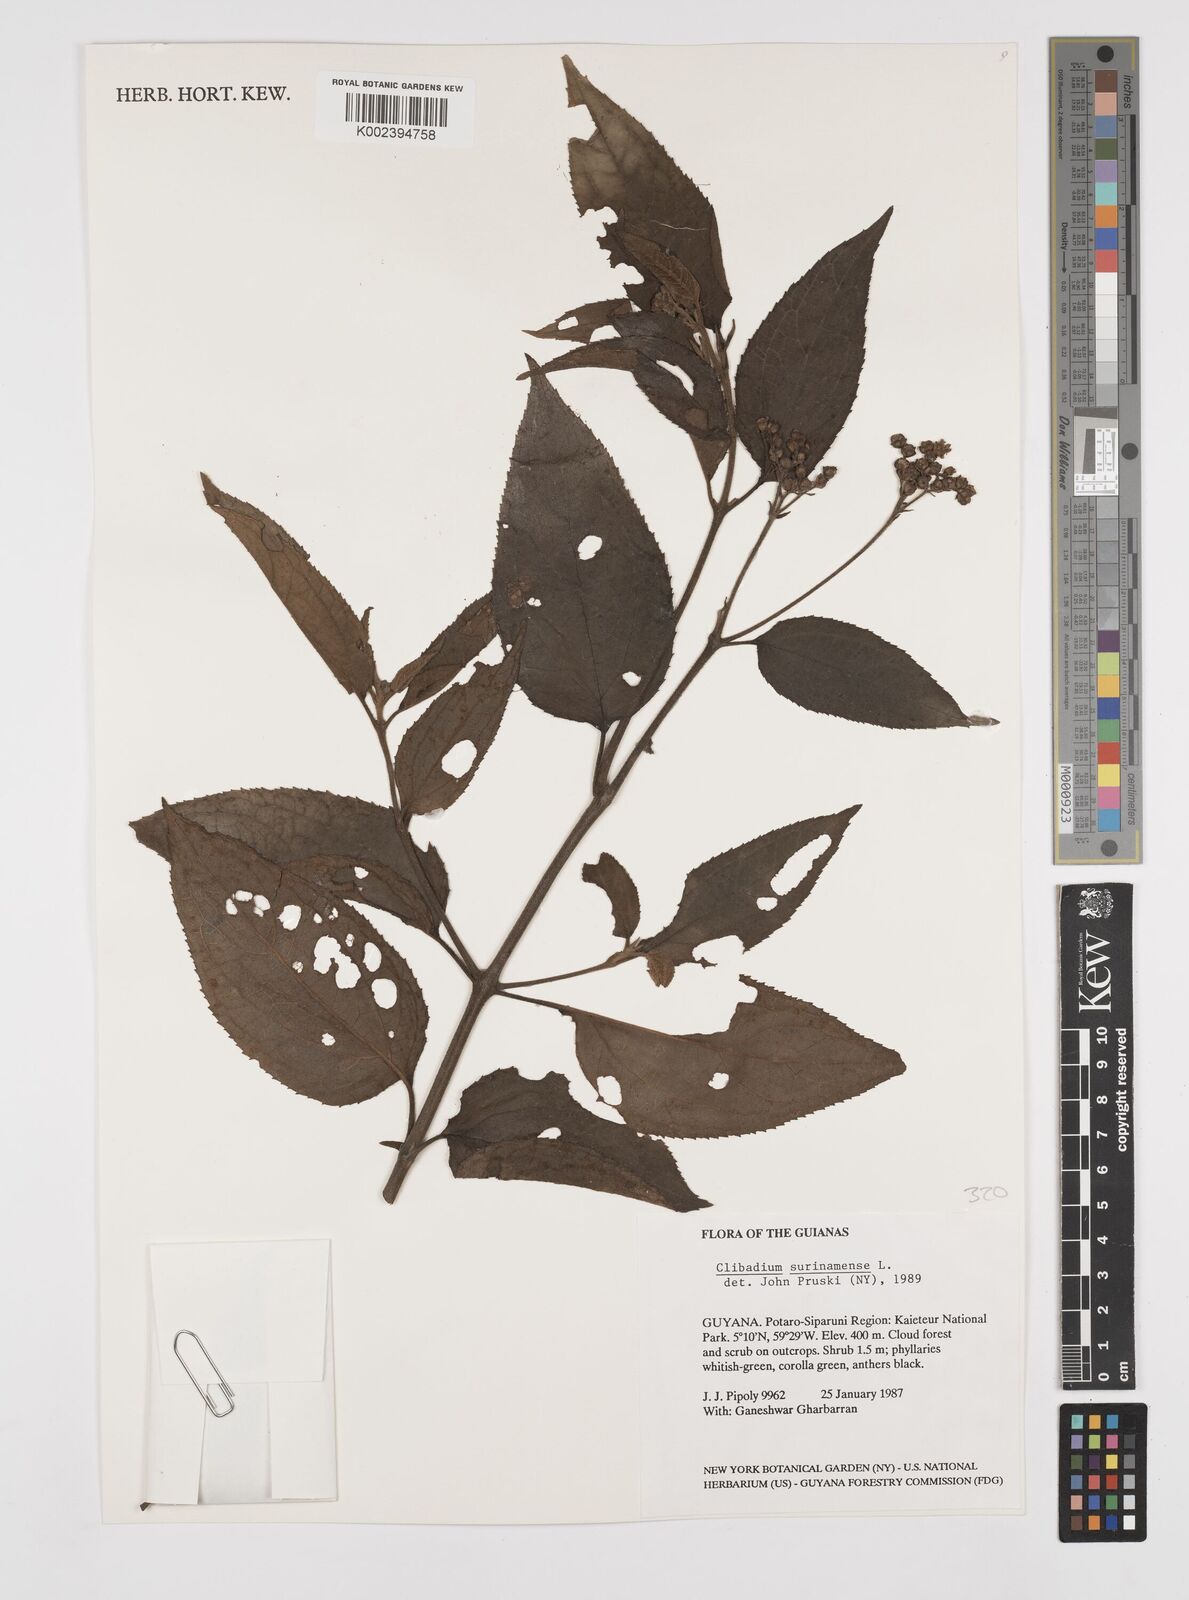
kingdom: Plantae
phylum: Tracheophyta
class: Magnoliopsida
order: Asterales
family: Asteraceae
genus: Clibadium
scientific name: Clibadium surinamense
